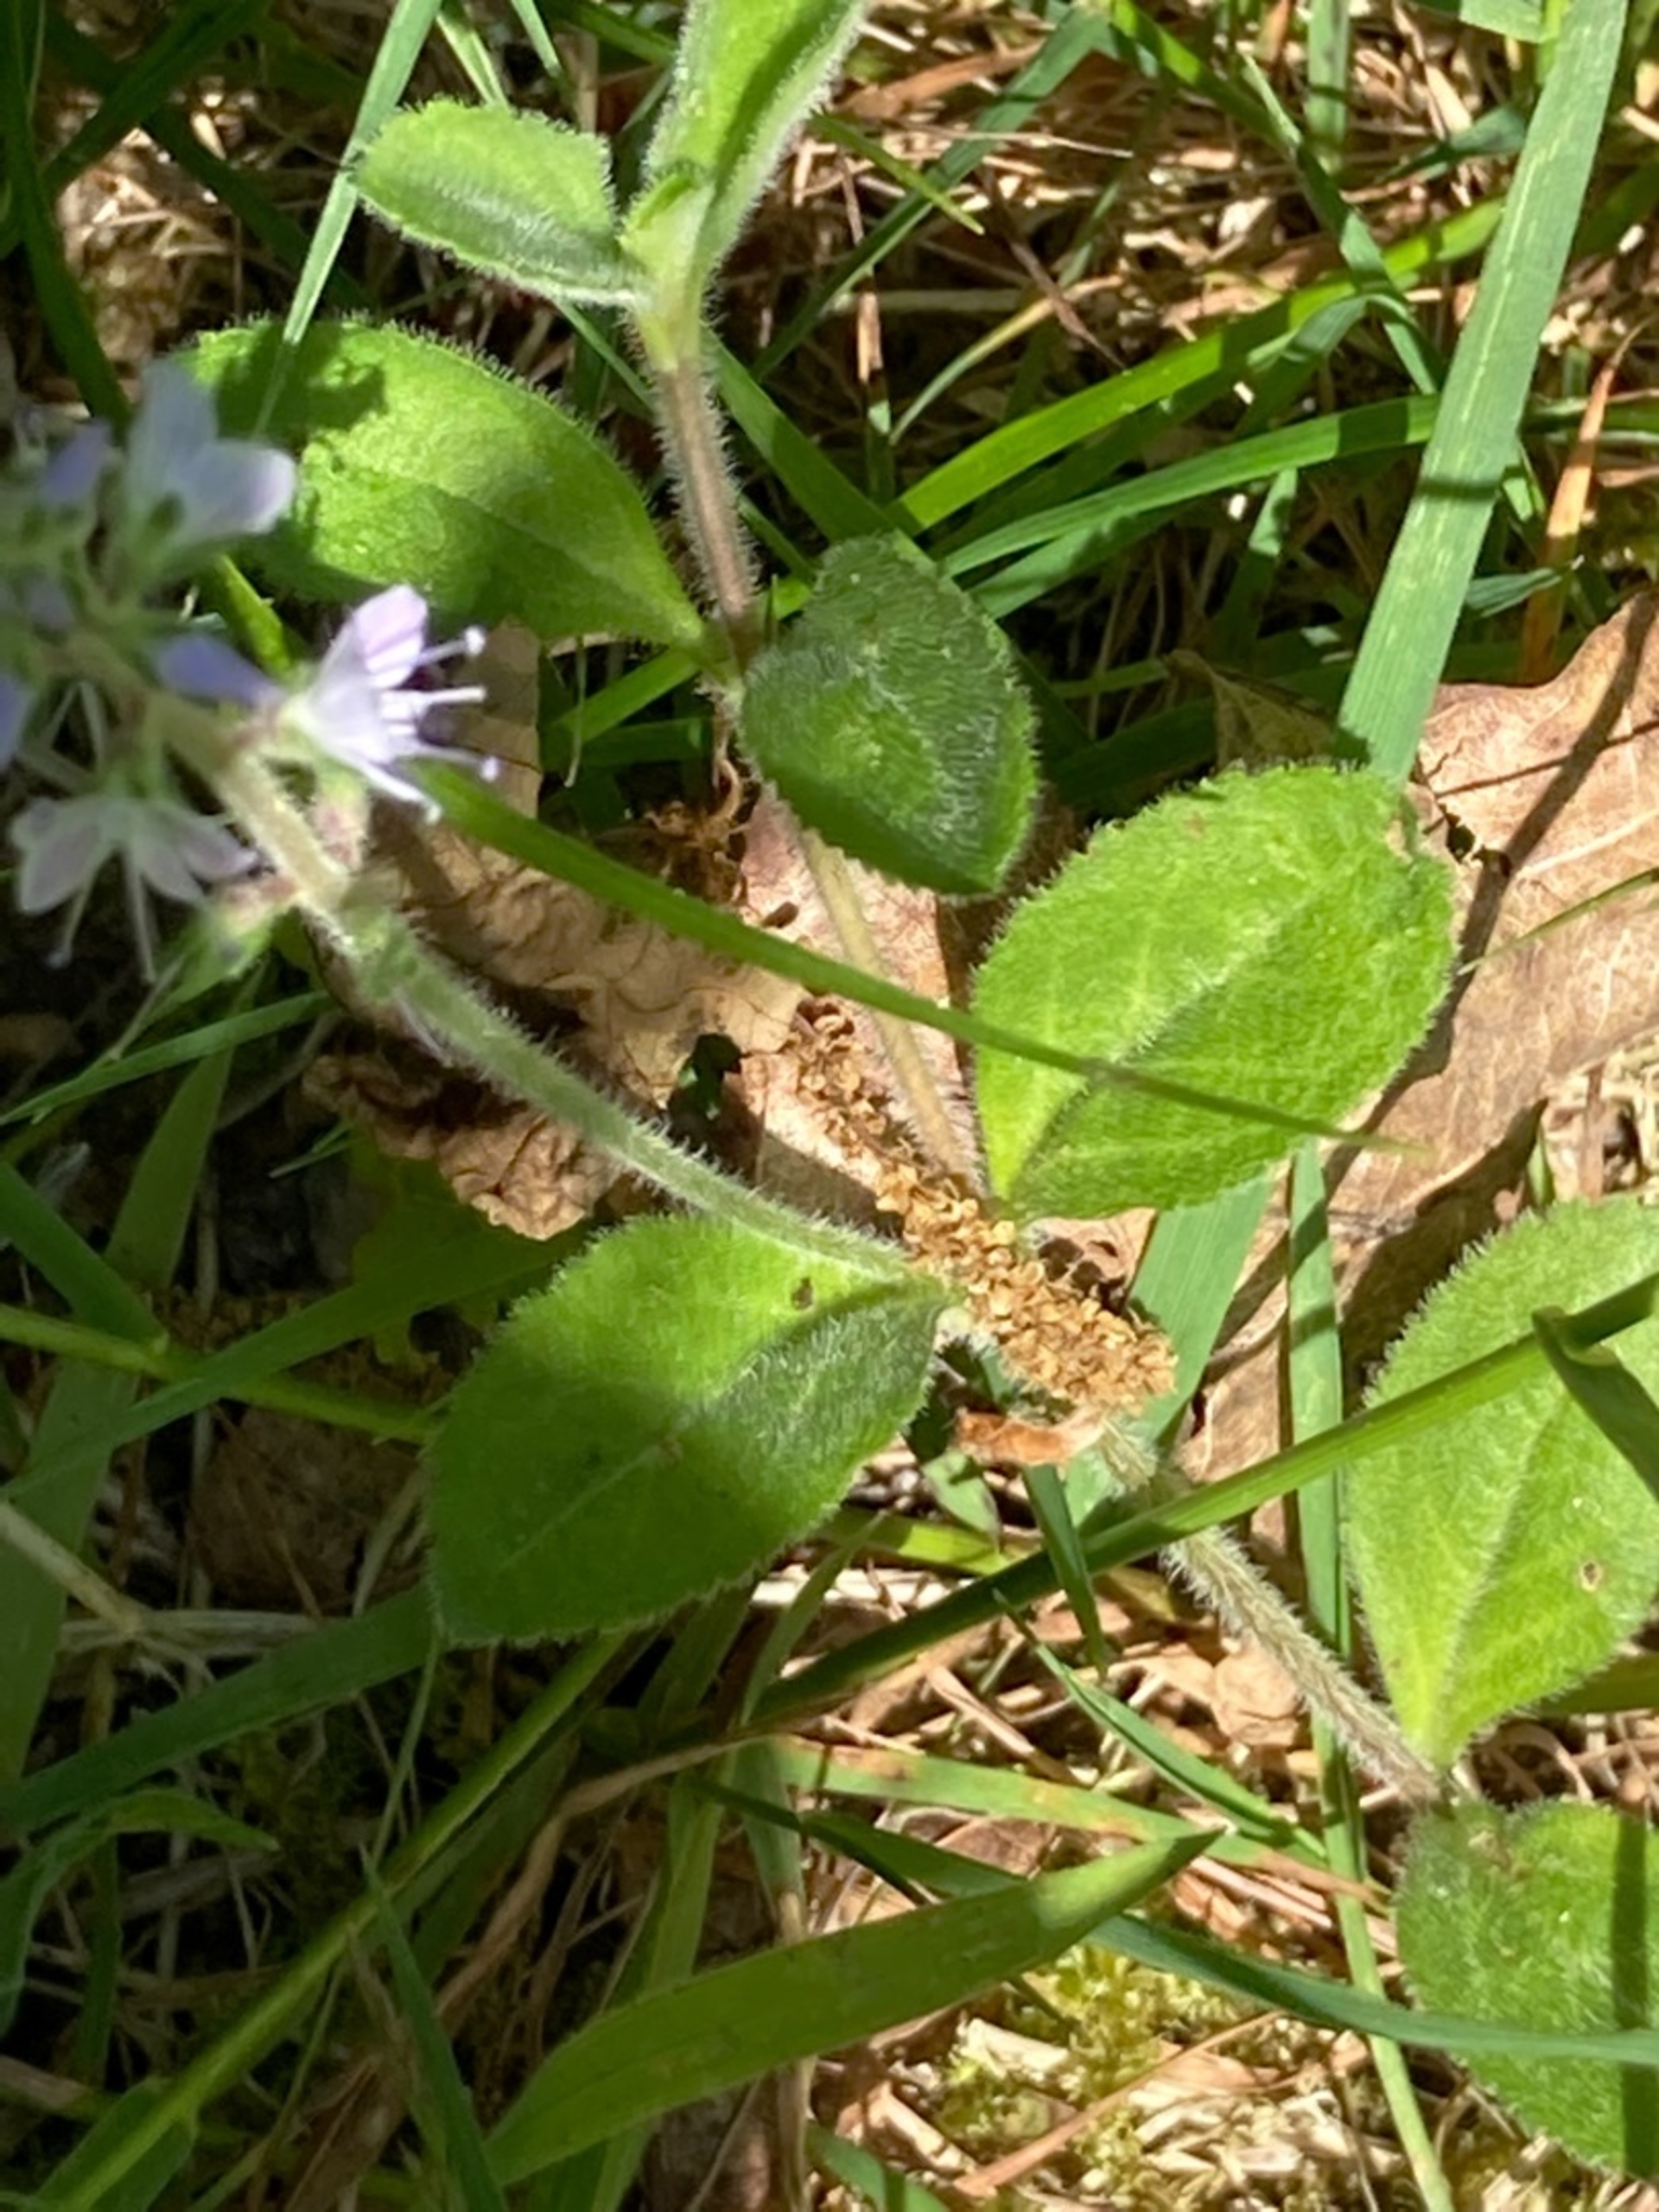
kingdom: Plantae
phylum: Tracheophyta
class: Magnoliopsida
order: Lamiales
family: Plantaginaceae
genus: Veronica
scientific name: Veronica officinalis
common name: Læge-ærenpris
